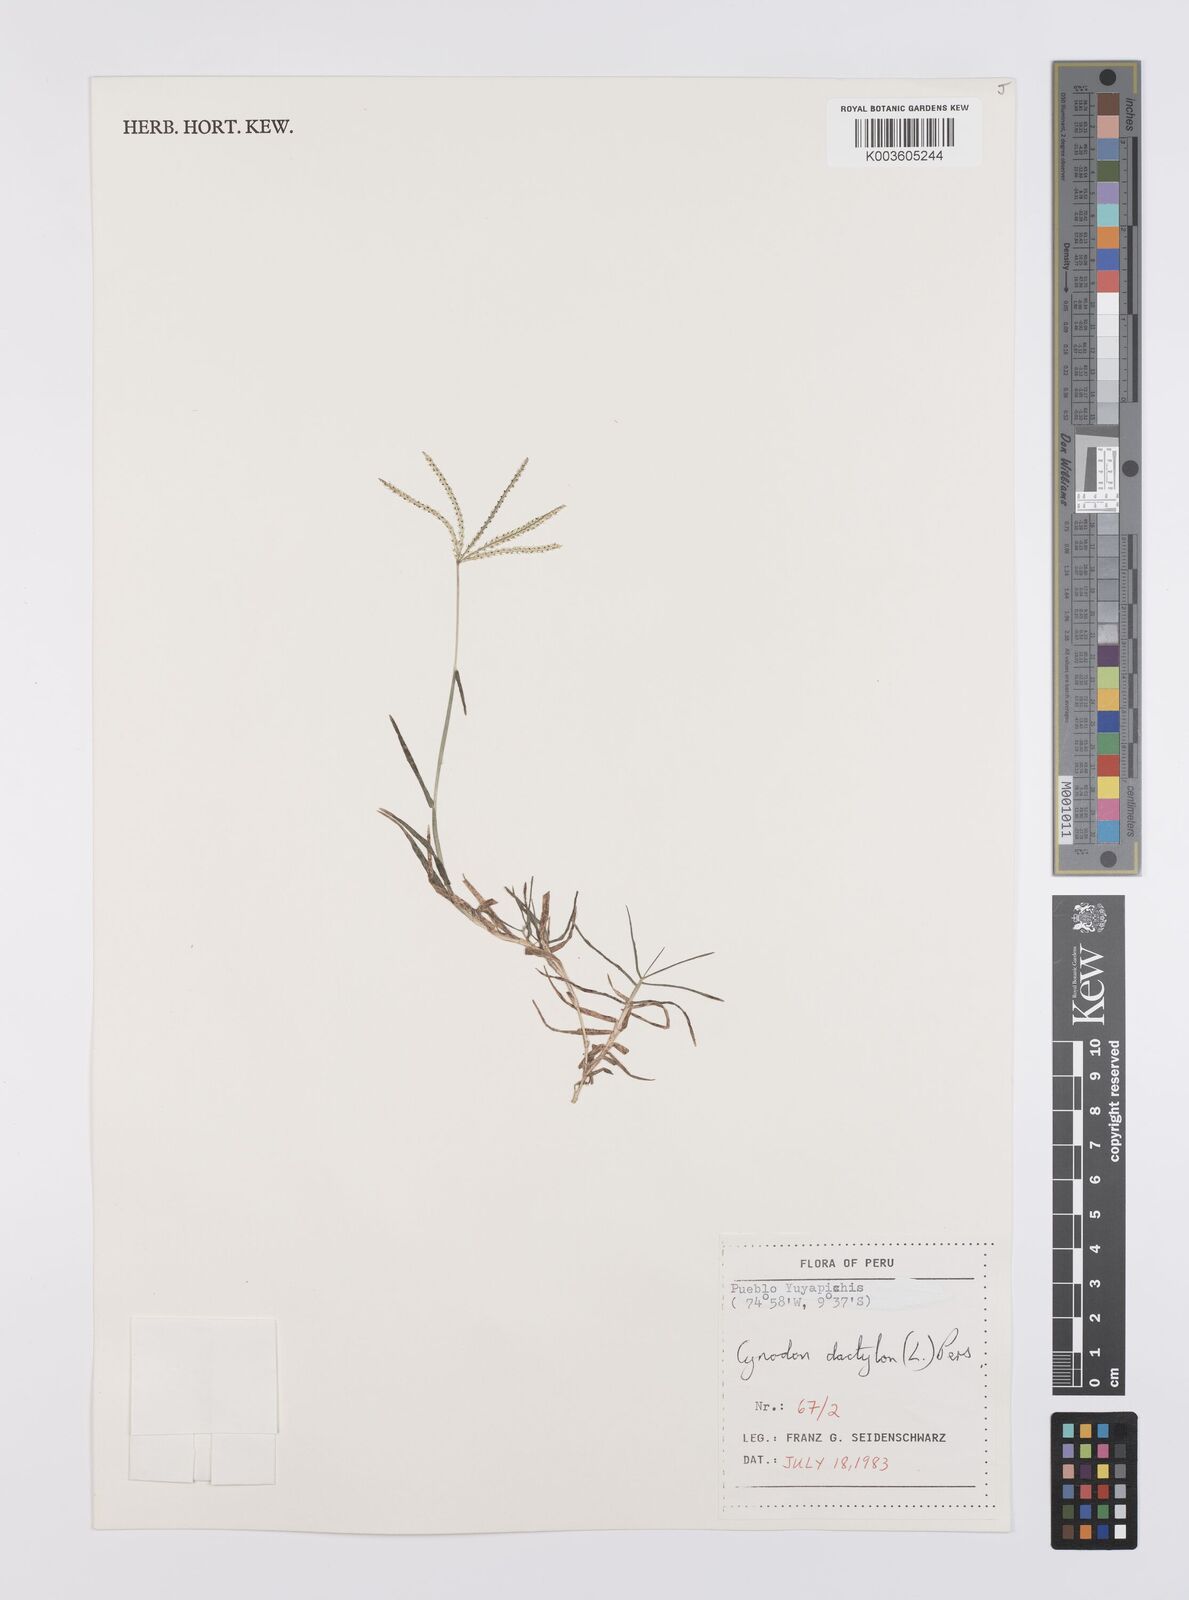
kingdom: Plantae
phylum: Tracheophyta
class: Liliopsida
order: Poales
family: Poaceae
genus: Cynodon
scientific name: Cynodon dactylon
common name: Bermuda grass
